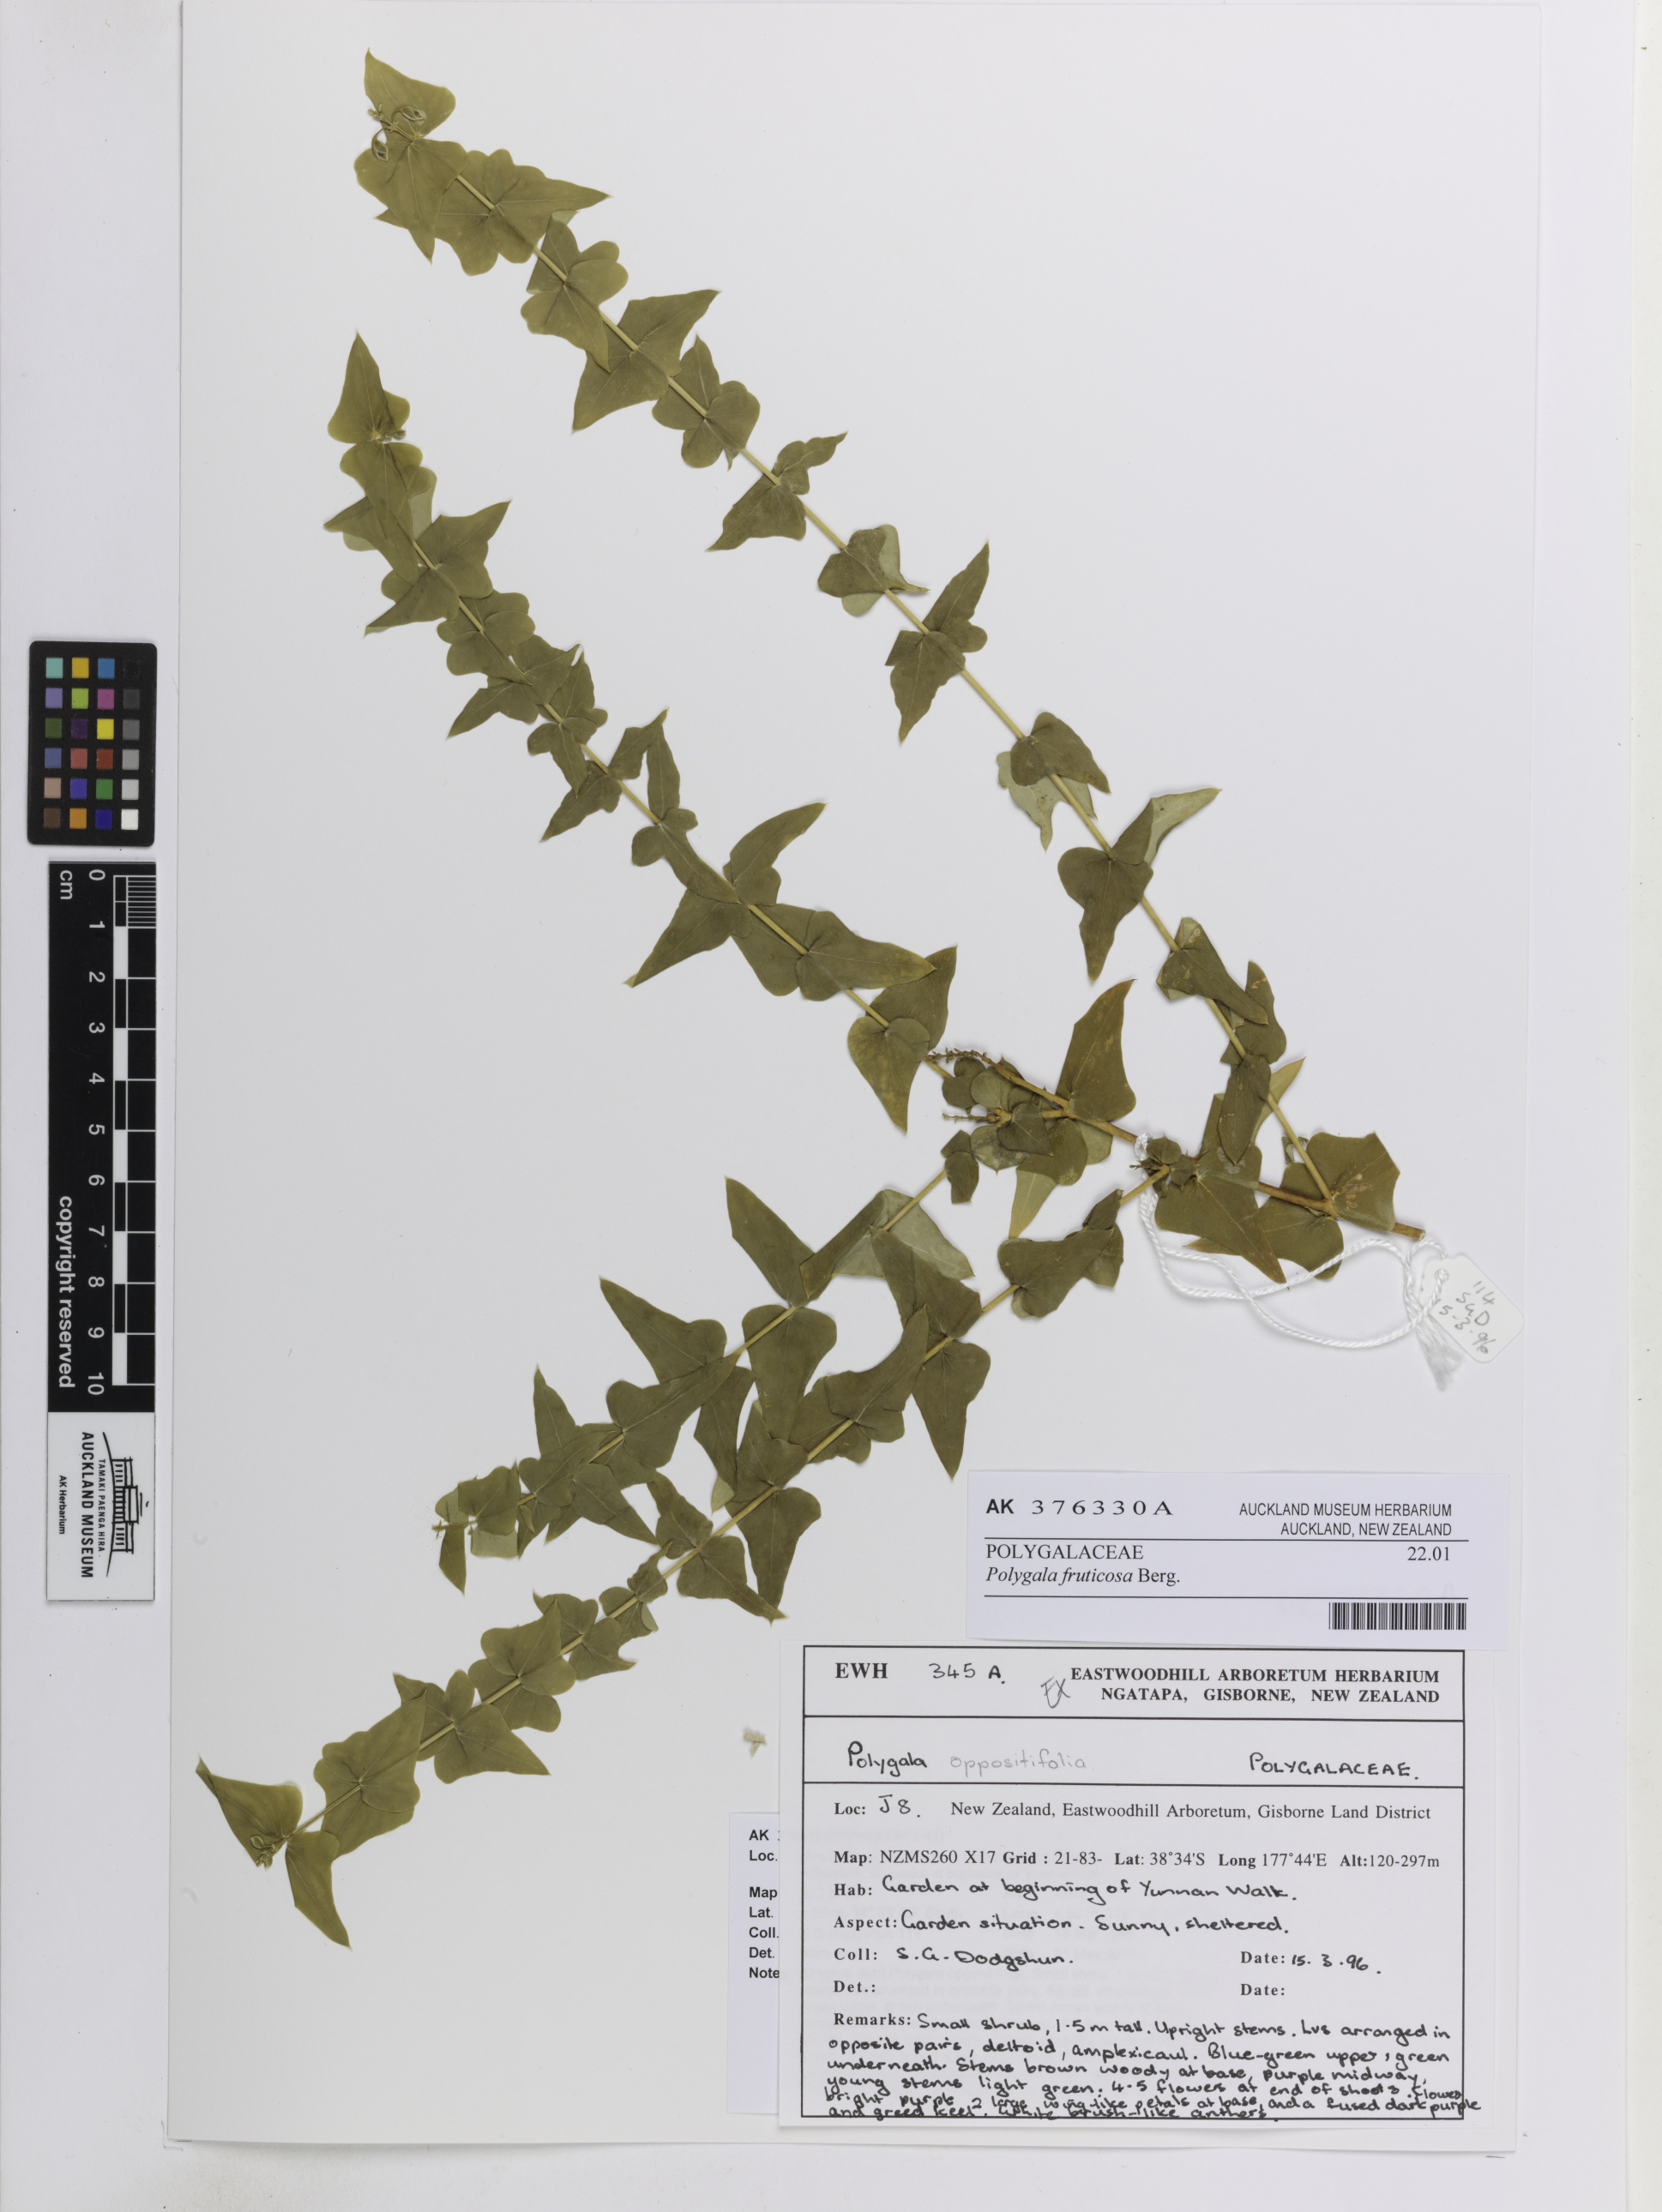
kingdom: Plantae
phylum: Tracheophyta
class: Magnoliopsida
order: Fabales
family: Polygalaceae
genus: Polygala
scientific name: Polygala fruticosa
